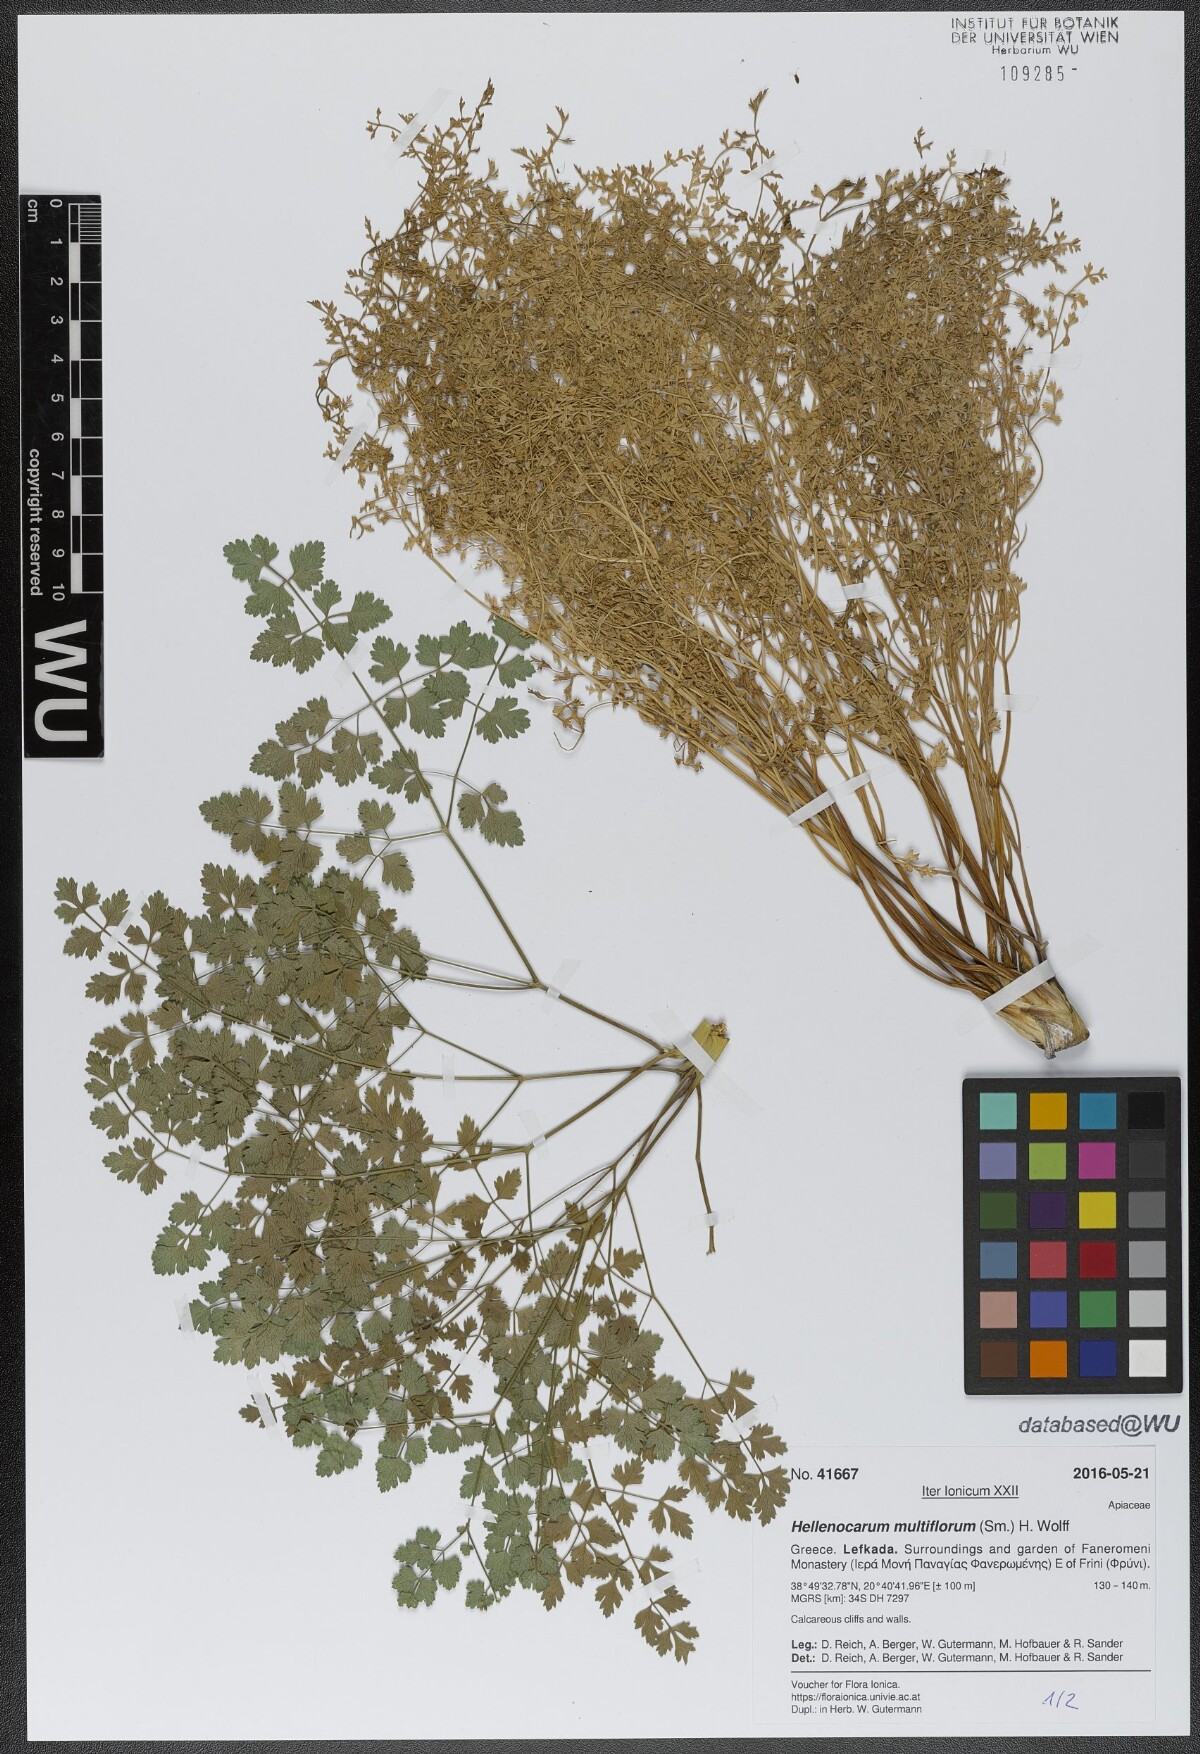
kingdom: Plantae
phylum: Tracheophyta
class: Magnoliopsida
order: Apiales
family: Apiaceae
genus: Hellenocarum
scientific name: Hellenocarum multiflorum
